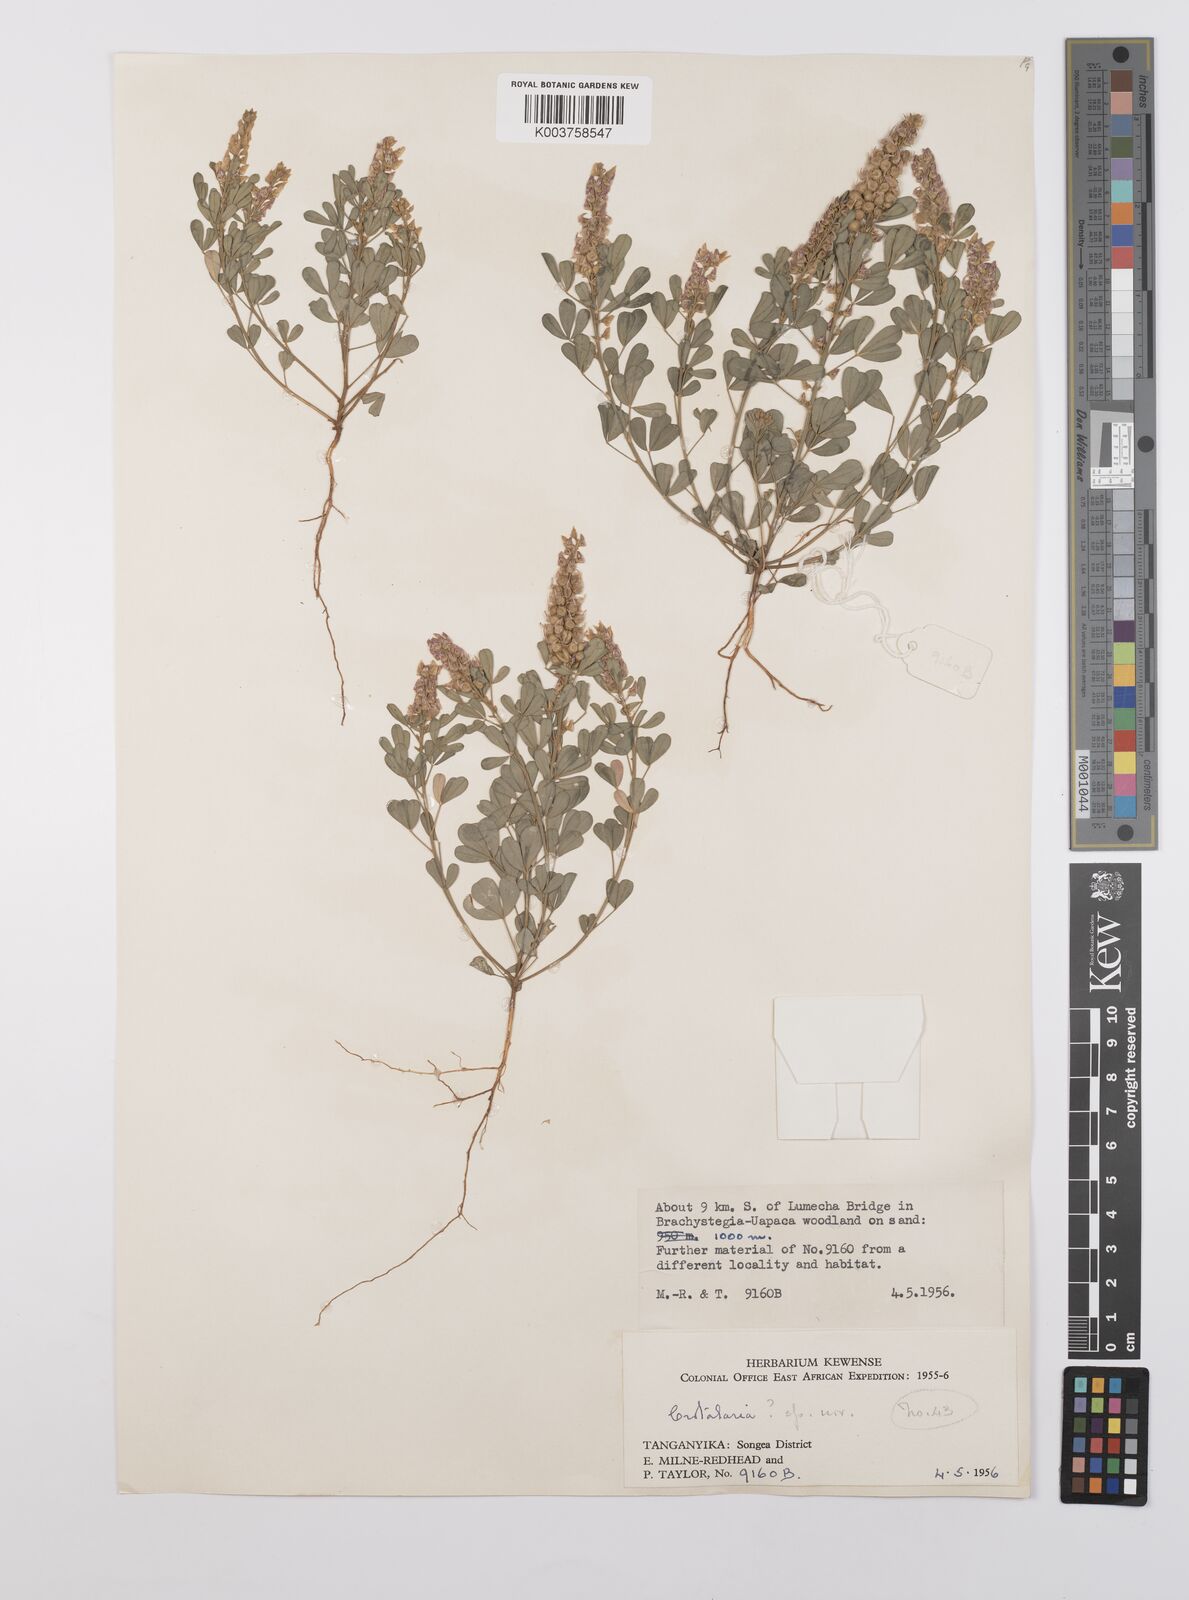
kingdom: Plantae
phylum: Tracheophyta
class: Magnoliopsida
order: Fabales
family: Fabaceae
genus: Crotalaria
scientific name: Crotalaria hyssopifolia
